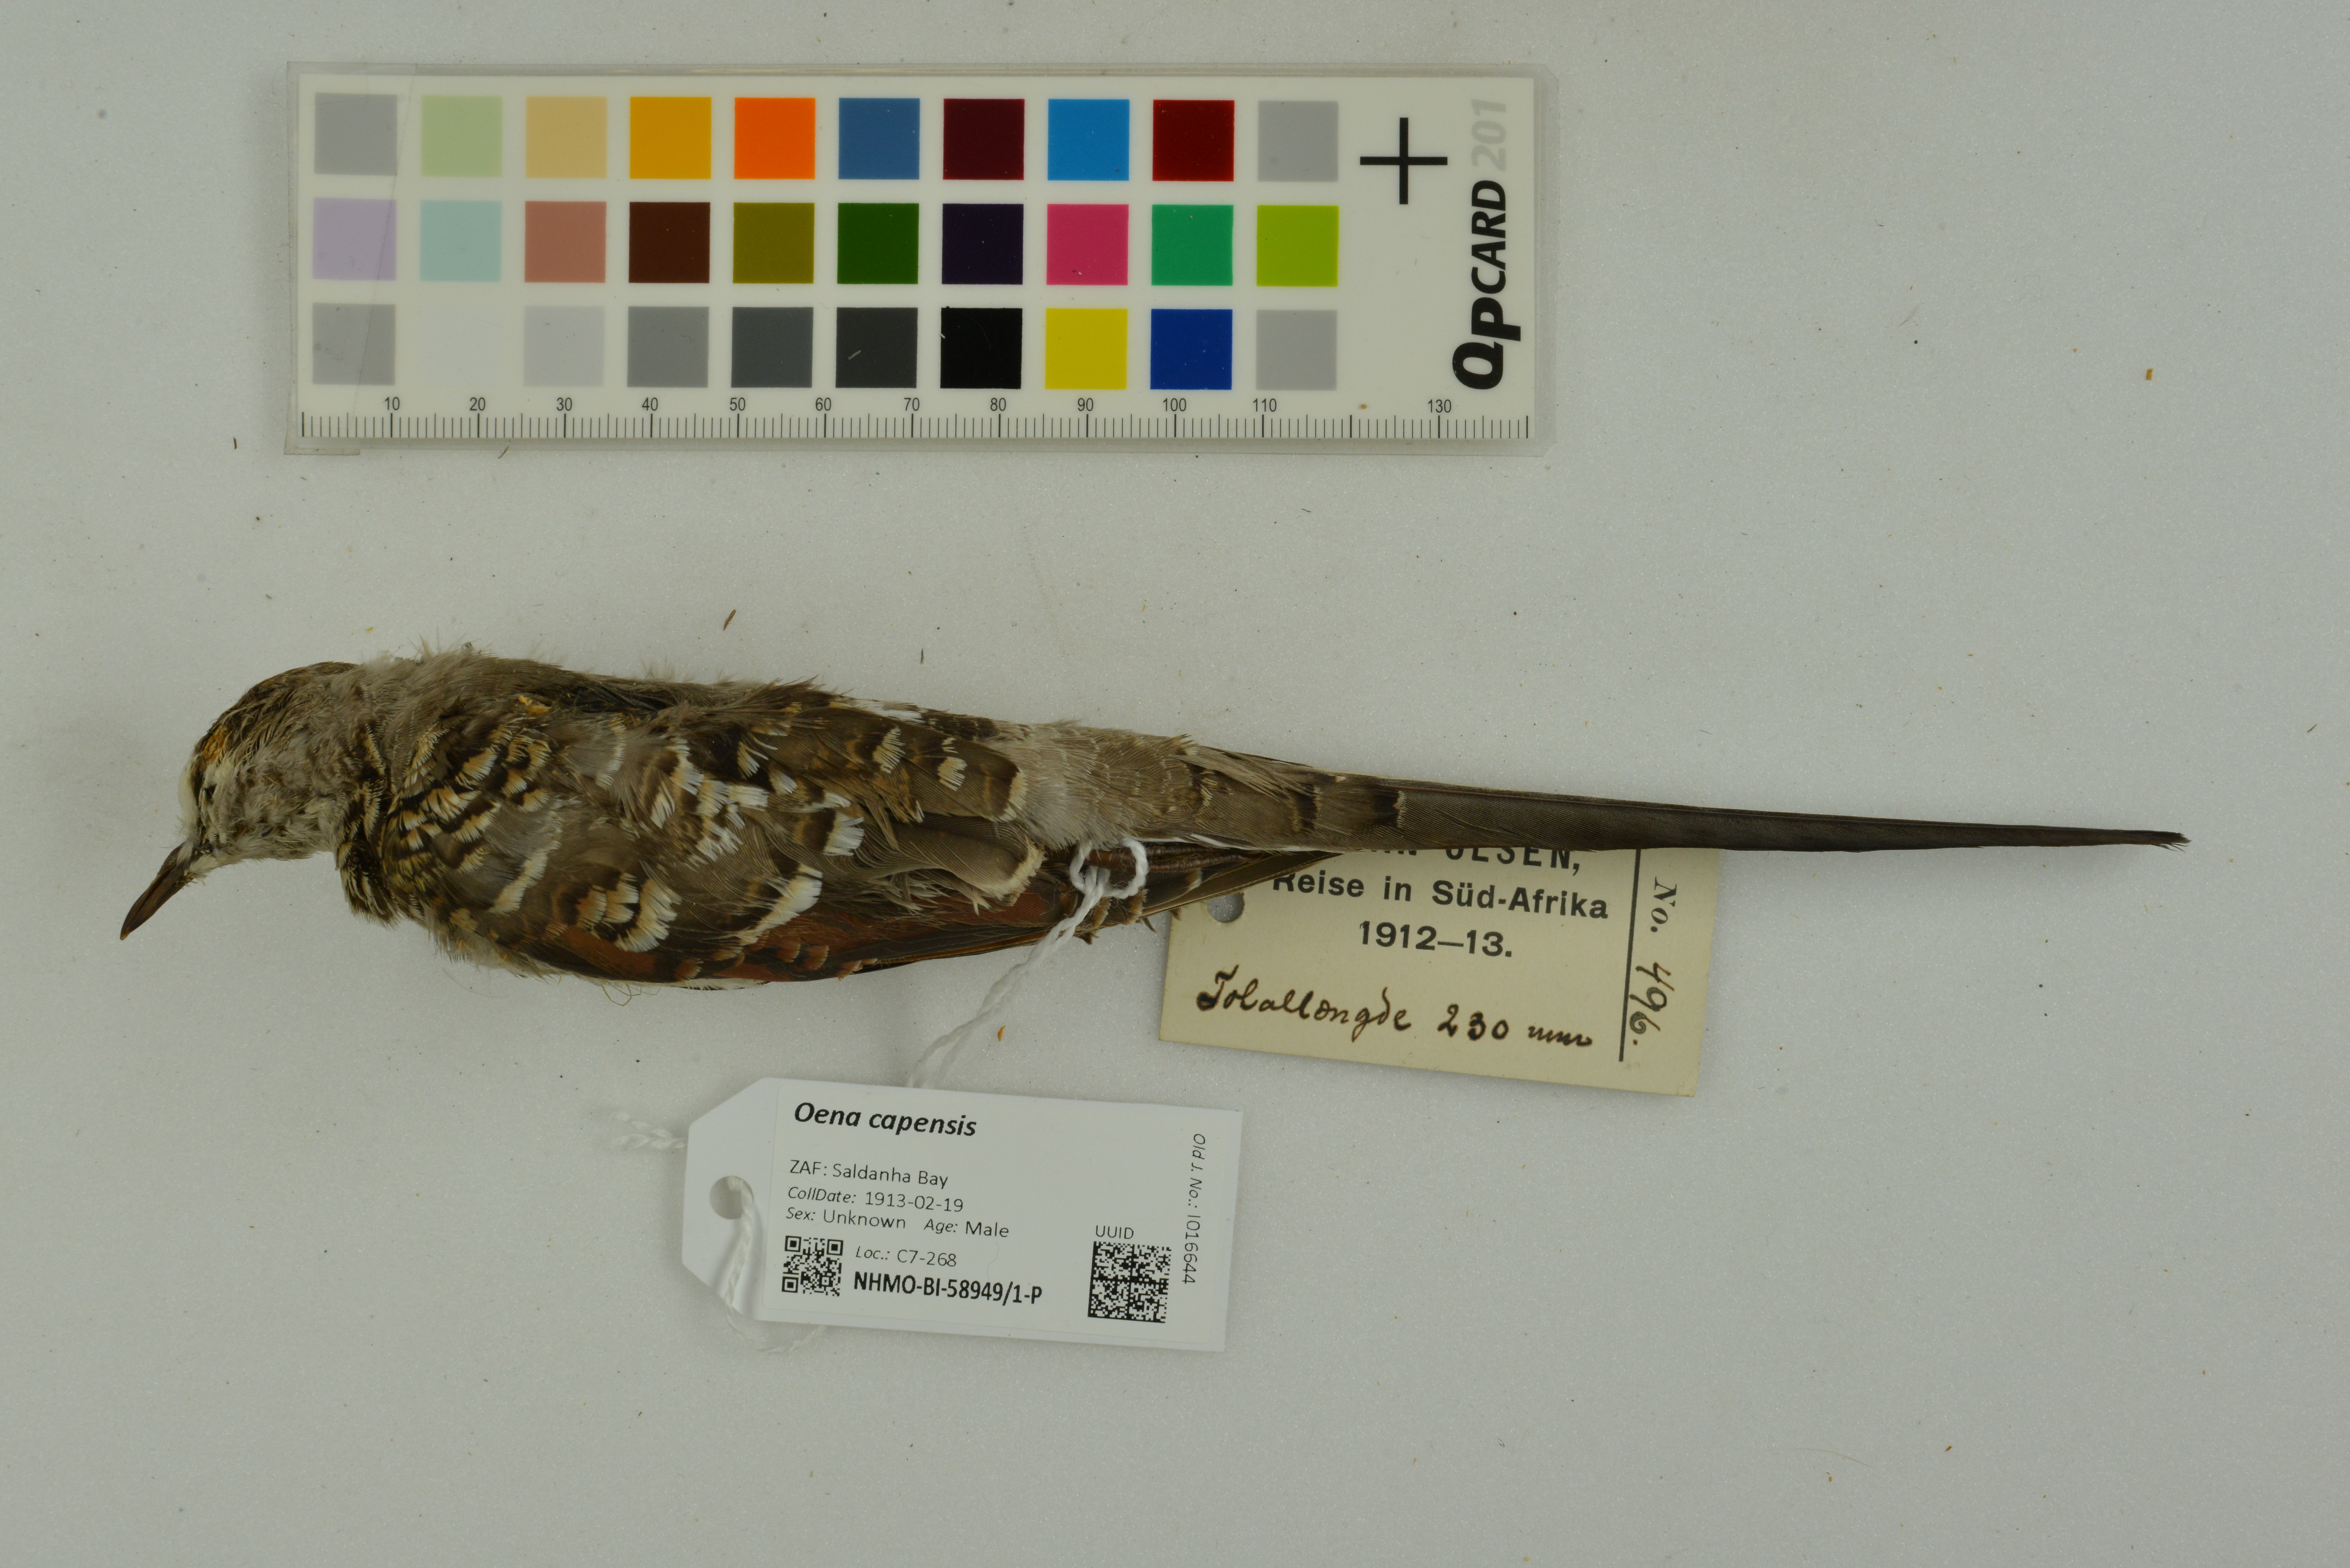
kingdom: Animalia
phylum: Chordata
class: Aves
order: Columbiformes
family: Columbidae
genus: Oena
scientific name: Oena capensis
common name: Namaqua dove
